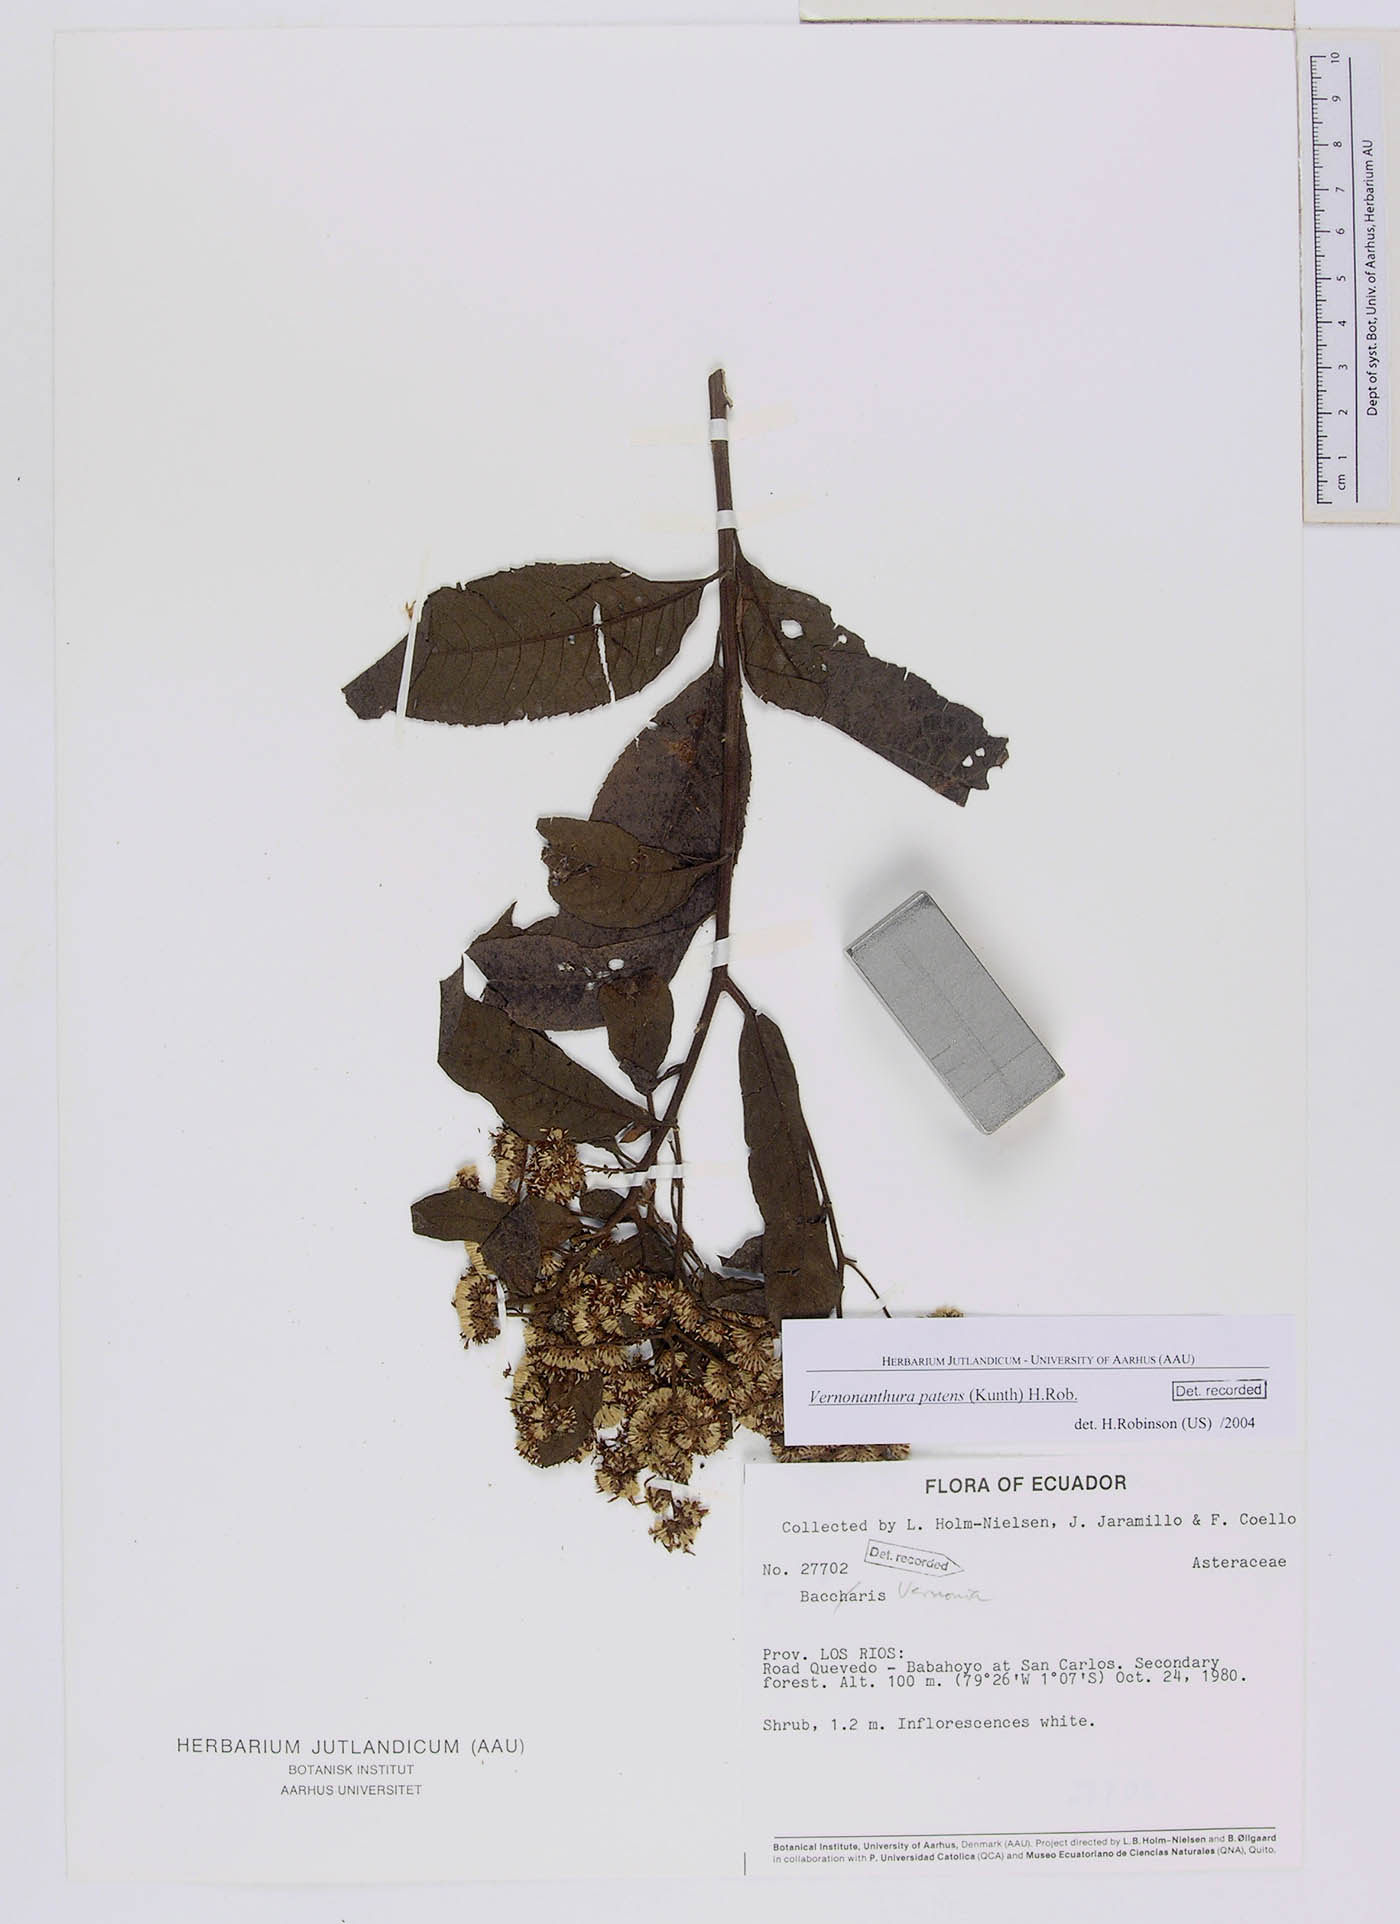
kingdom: Plantae
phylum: Tracheophyta
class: Magnoliopsida
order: Asterales
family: Asteraceae
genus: Vernonanthura
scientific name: Vernonanthura patens
